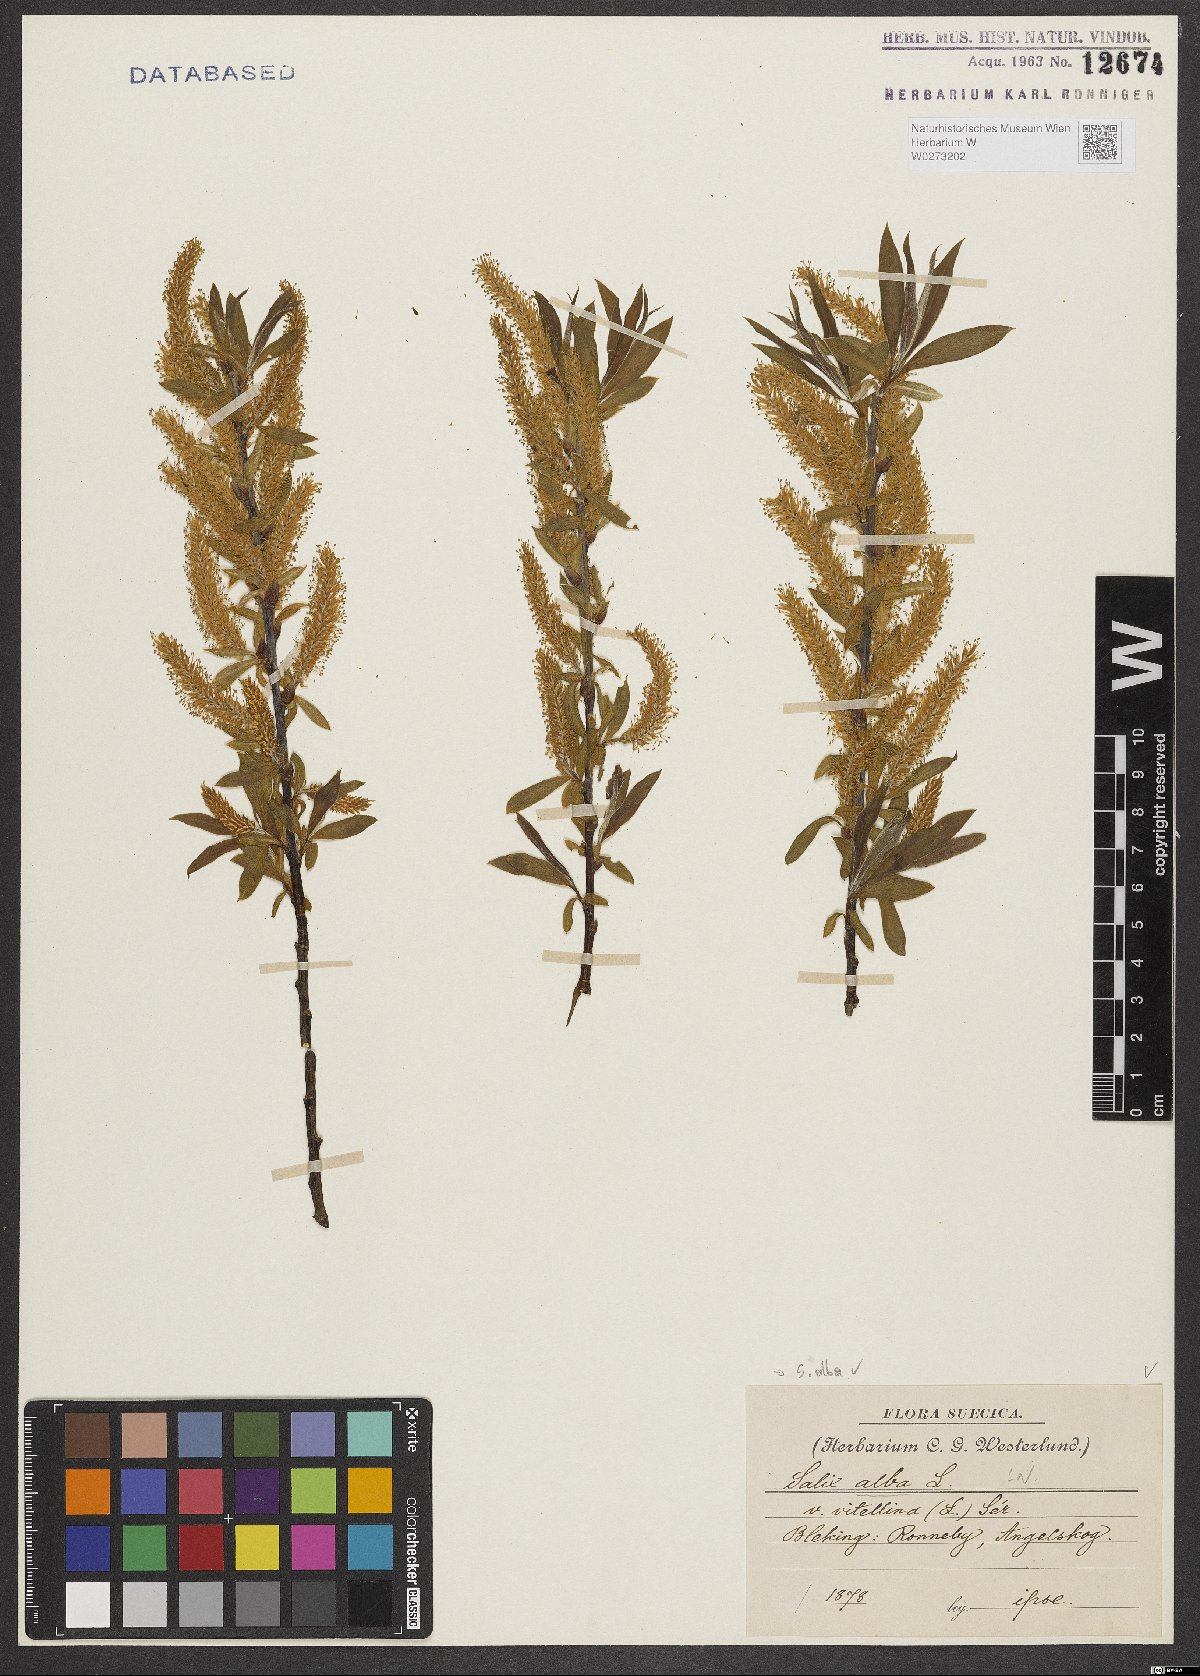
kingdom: Plantae
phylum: Tracheophyta
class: Magnoliopsida
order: Malpighiales
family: Salicaceae
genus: Salix
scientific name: Salix alba
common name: White willow
